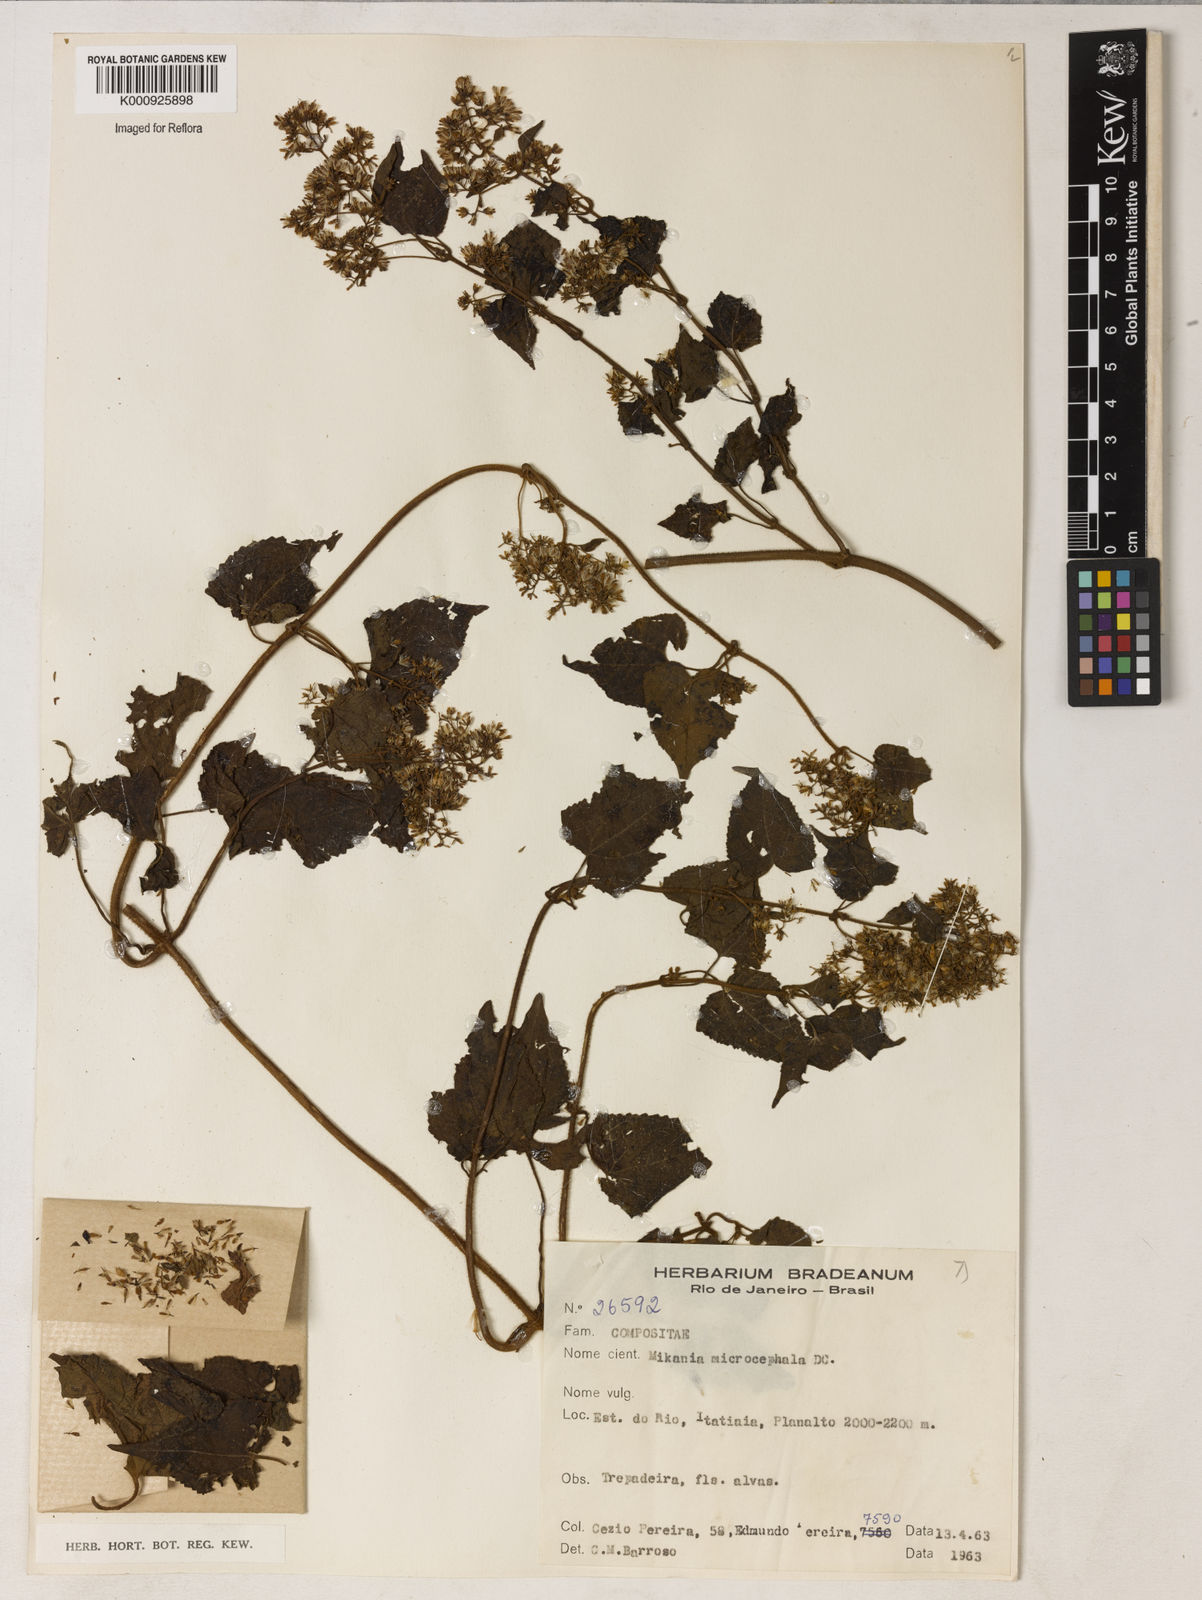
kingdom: Plantae
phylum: Tracheophyta
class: Magnoliopsida
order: Asterales
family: Asteraceae
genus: Mikania
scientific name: Mikania microcephala
